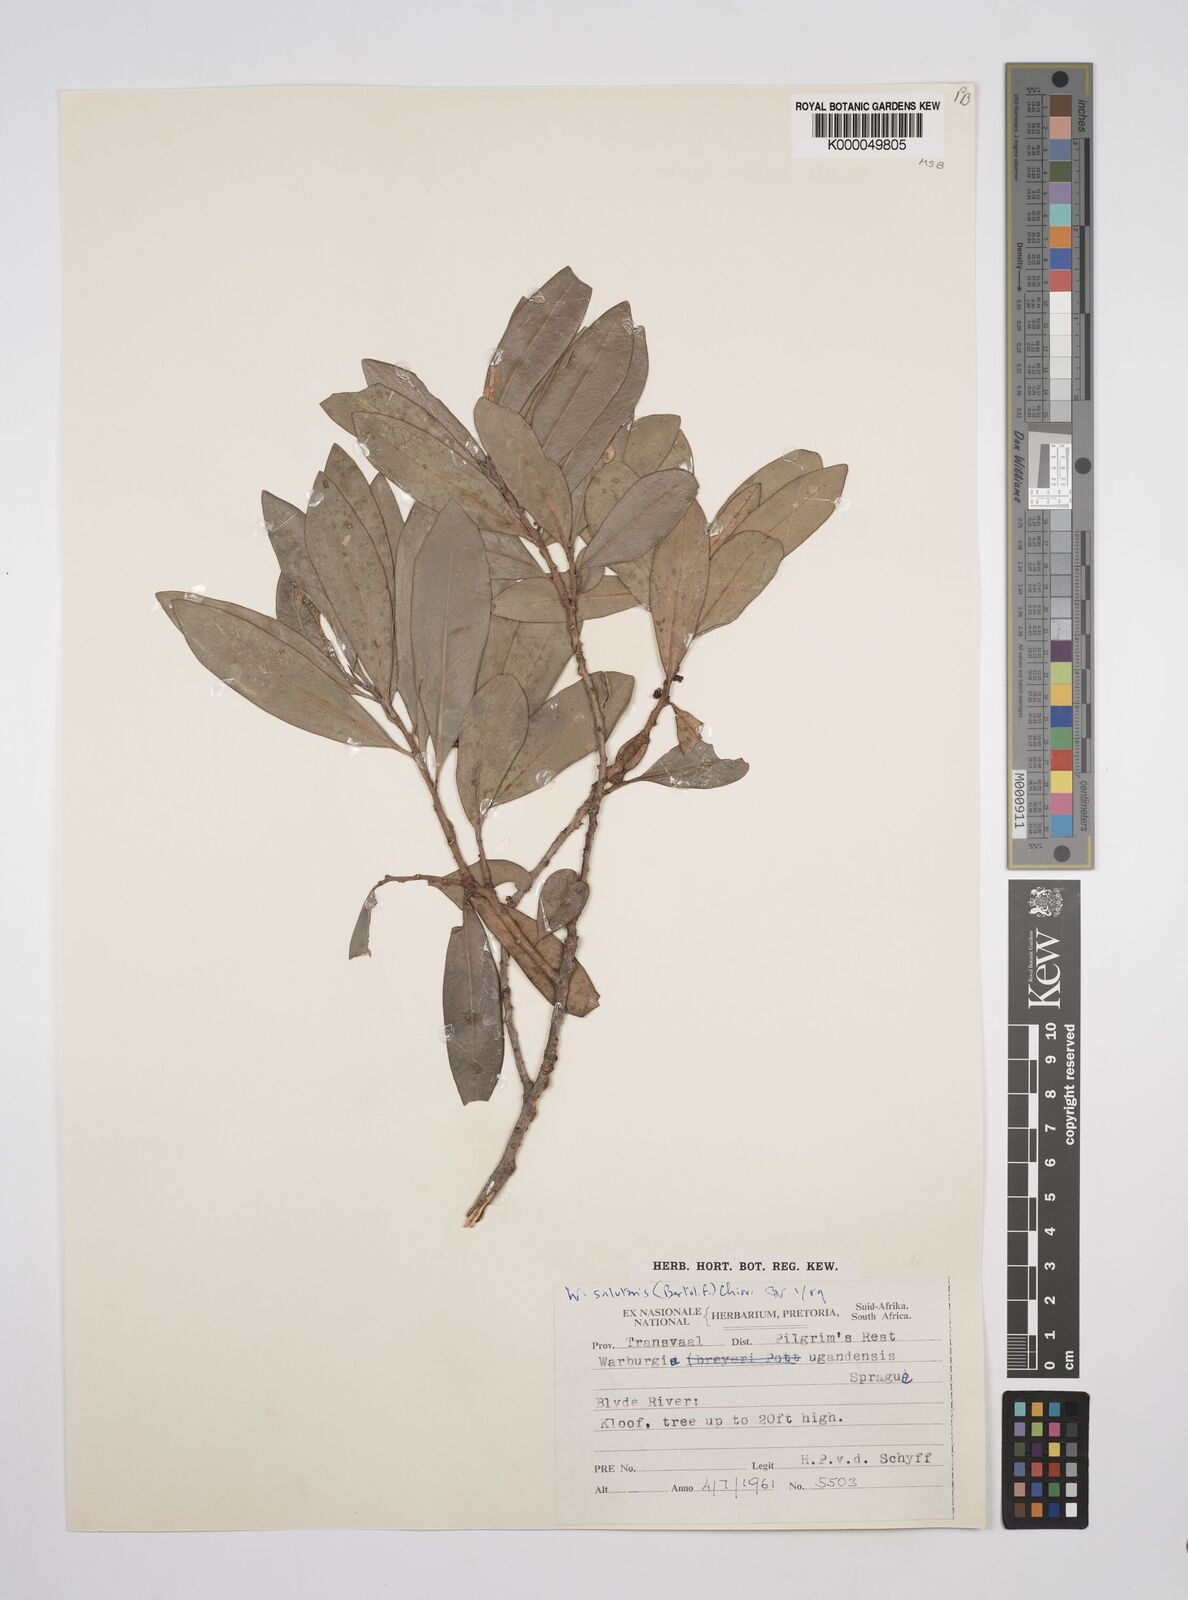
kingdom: Plantae
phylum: Tracheophyta
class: Magnoliopsida
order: Canellales
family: Canellaceae
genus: Warburgia
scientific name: Warburgia salutaris
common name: Pepper bark tree
